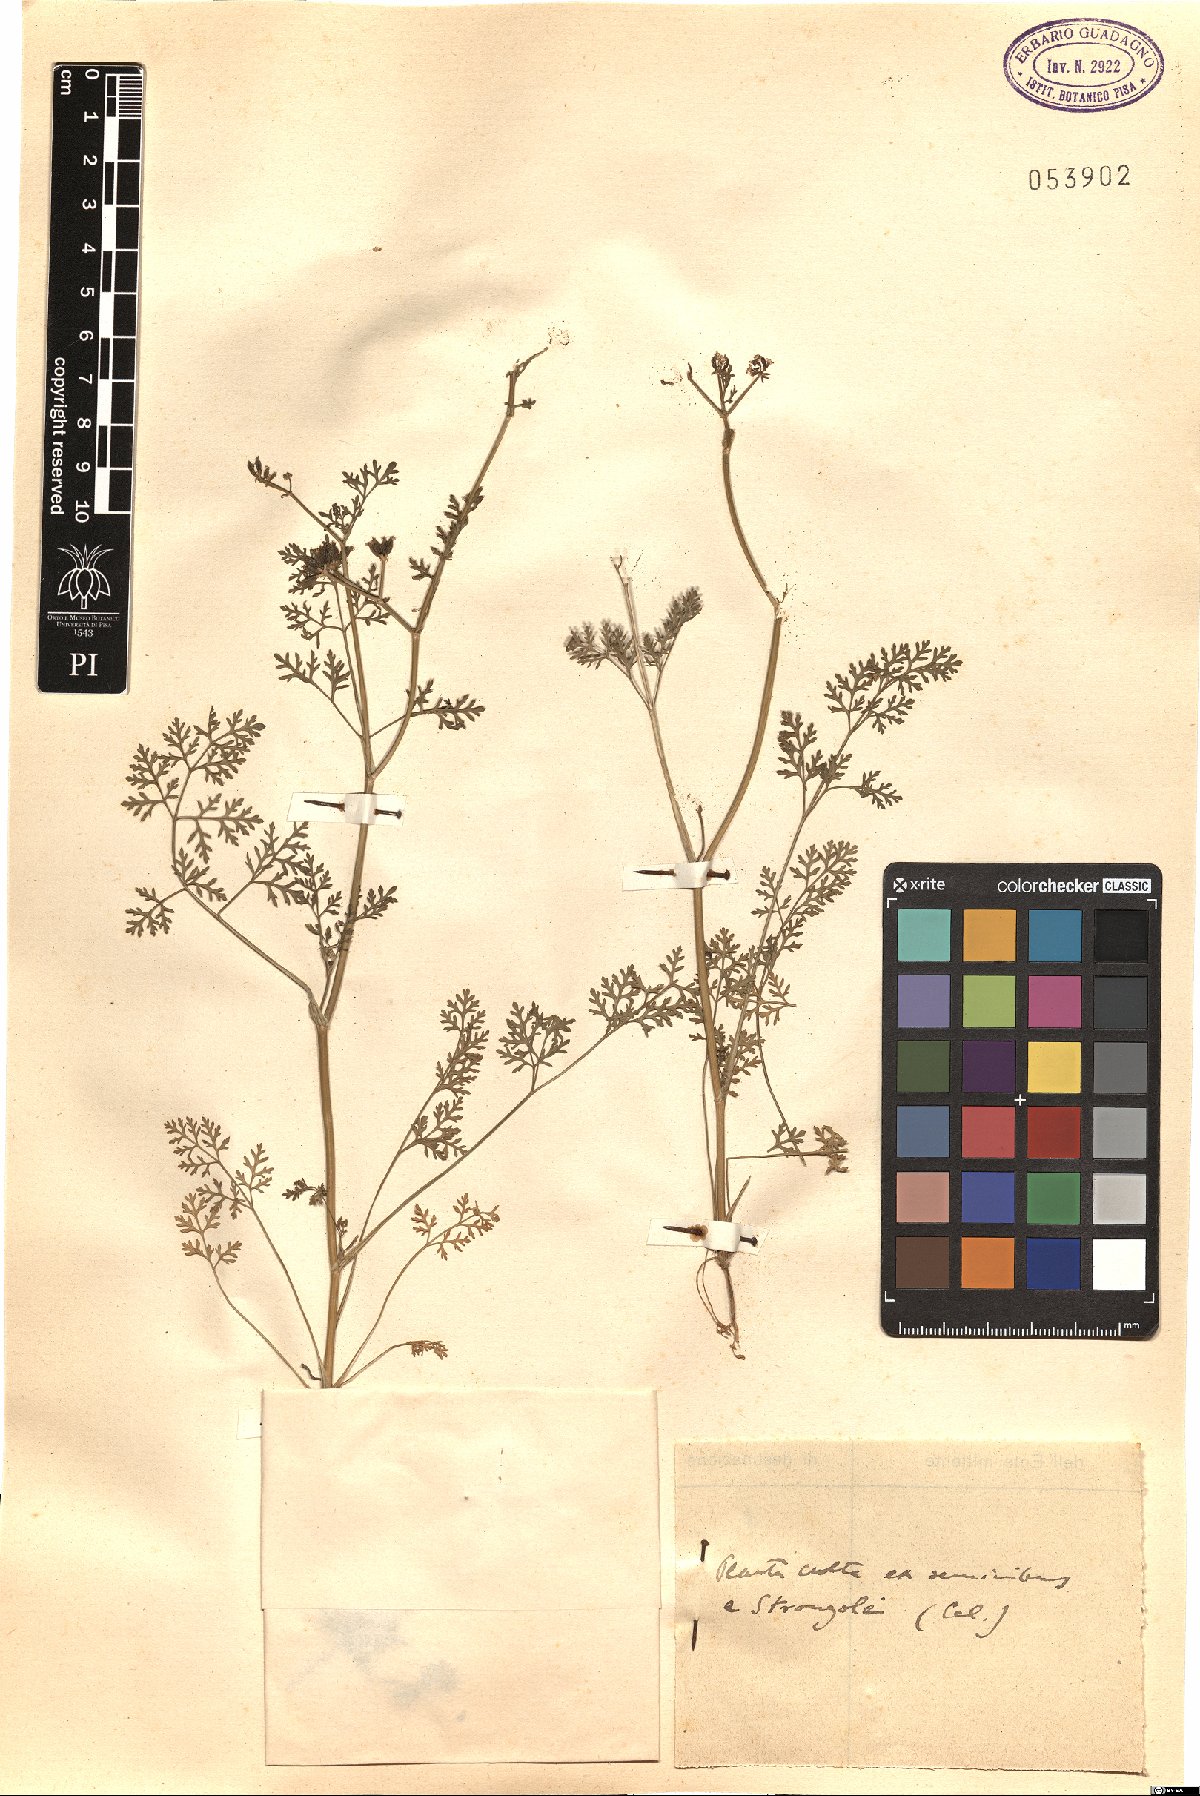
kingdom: Plantae
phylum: Tracheophyta
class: Magnoliopsida
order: Apiales
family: Apiaceae
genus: Krubera
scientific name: Krubera
